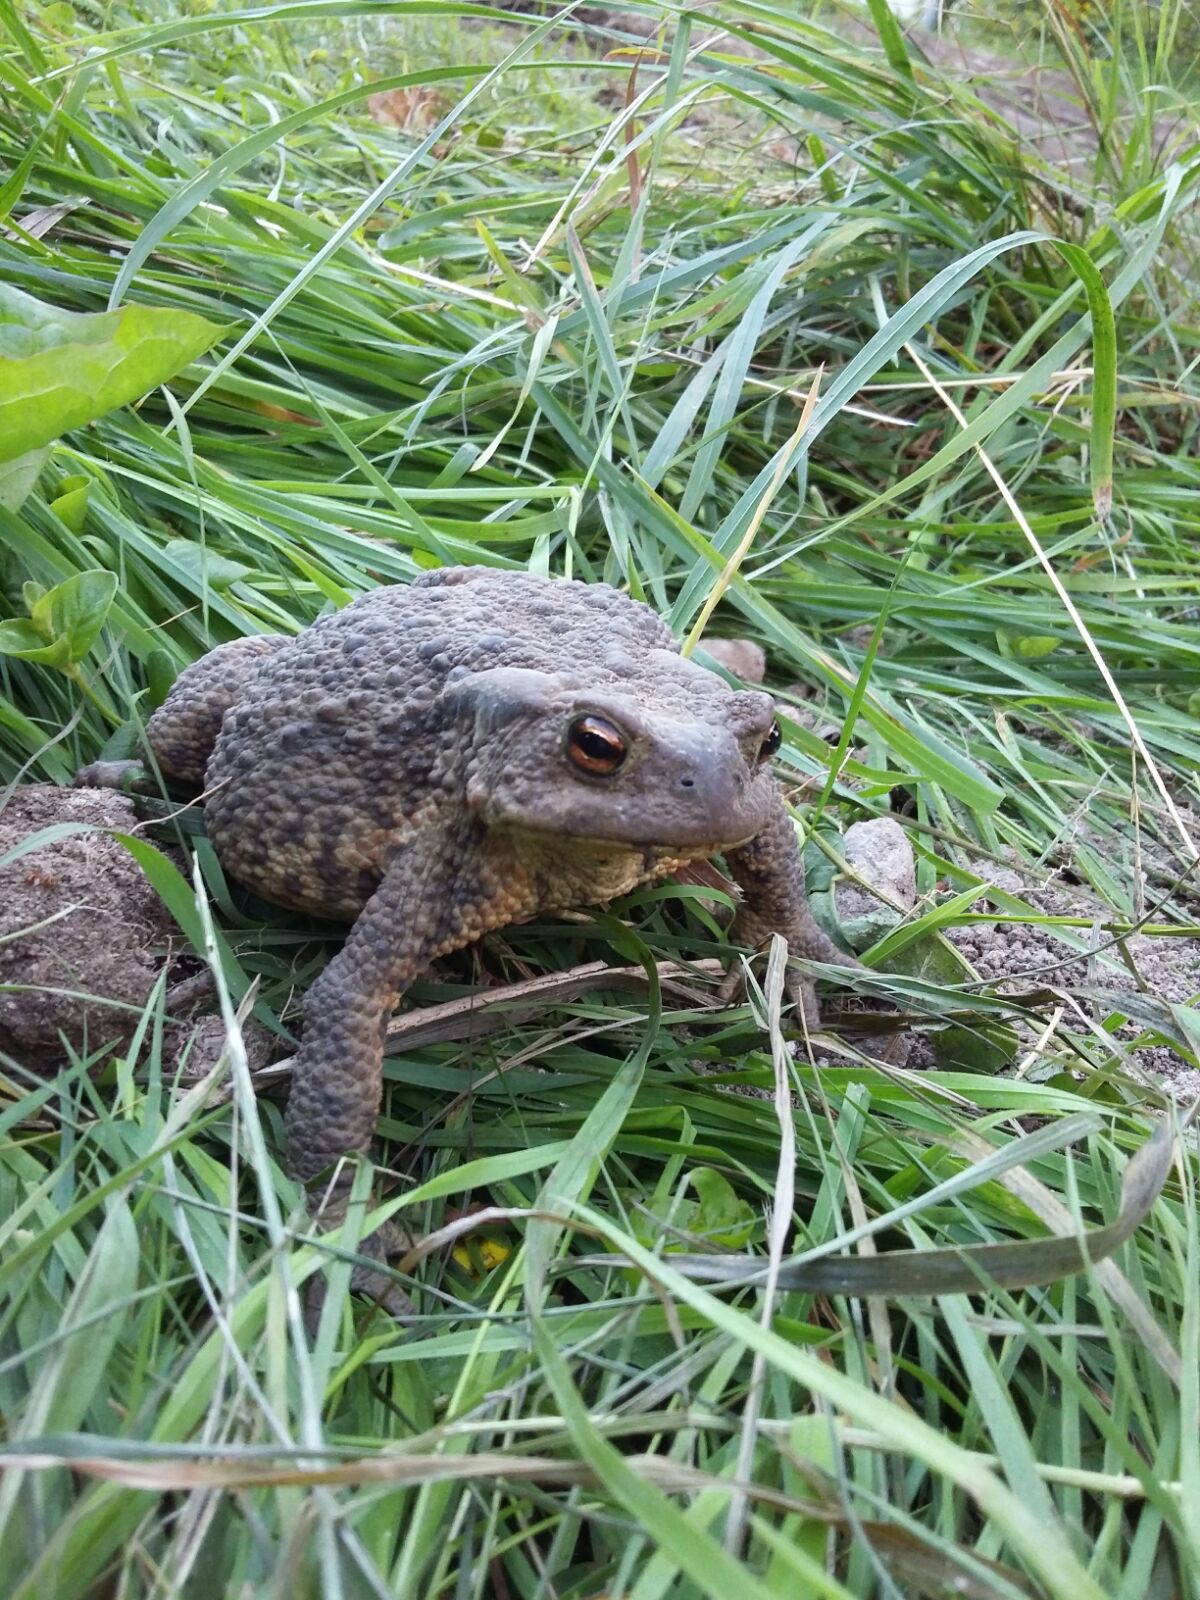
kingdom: Animalia
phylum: Chordata
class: Amphibia
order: Anura
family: Bufonidae
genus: Bufo
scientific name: Bufo bufo
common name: Common toad
